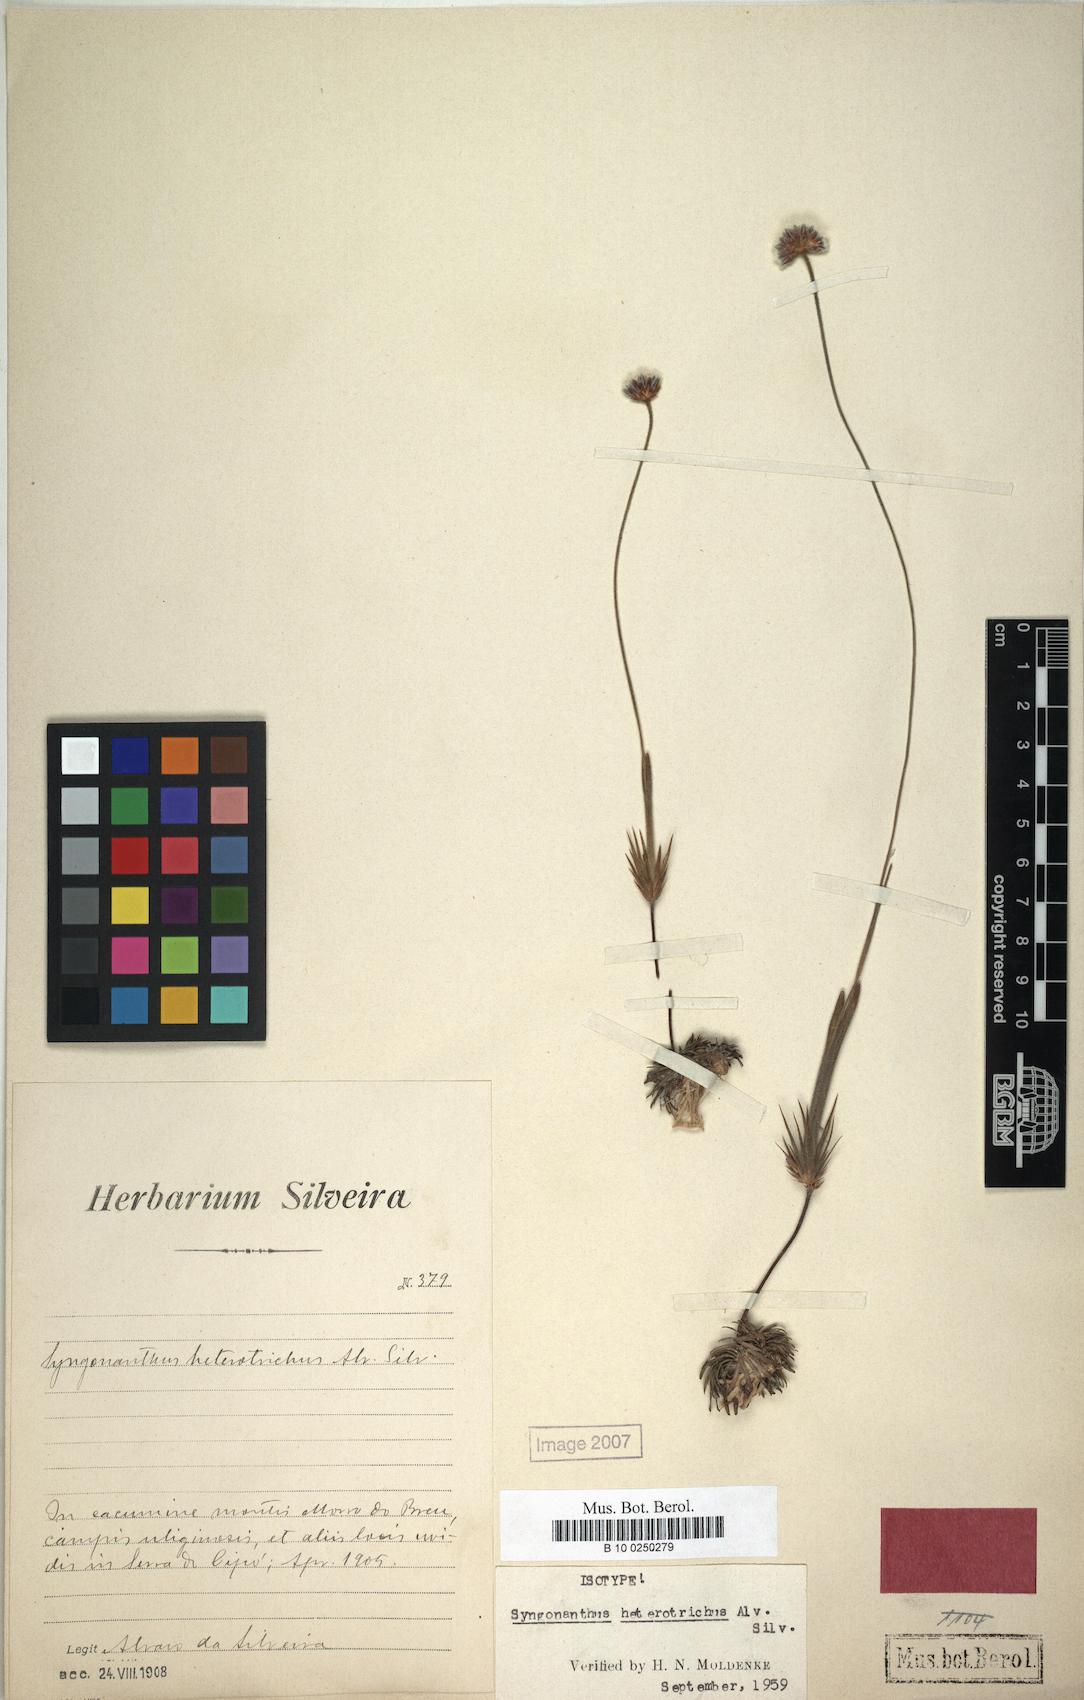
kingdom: Plantae
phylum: Tracheophyta
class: Liliopsida
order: Poales
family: Eriocaulaceae
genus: Syngonanthus
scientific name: Syngonanthus arenarius
